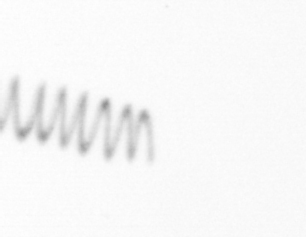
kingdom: Chromista
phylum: Ochrophyta
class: Bacillariophyceae
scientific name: Bacillariophyceae
